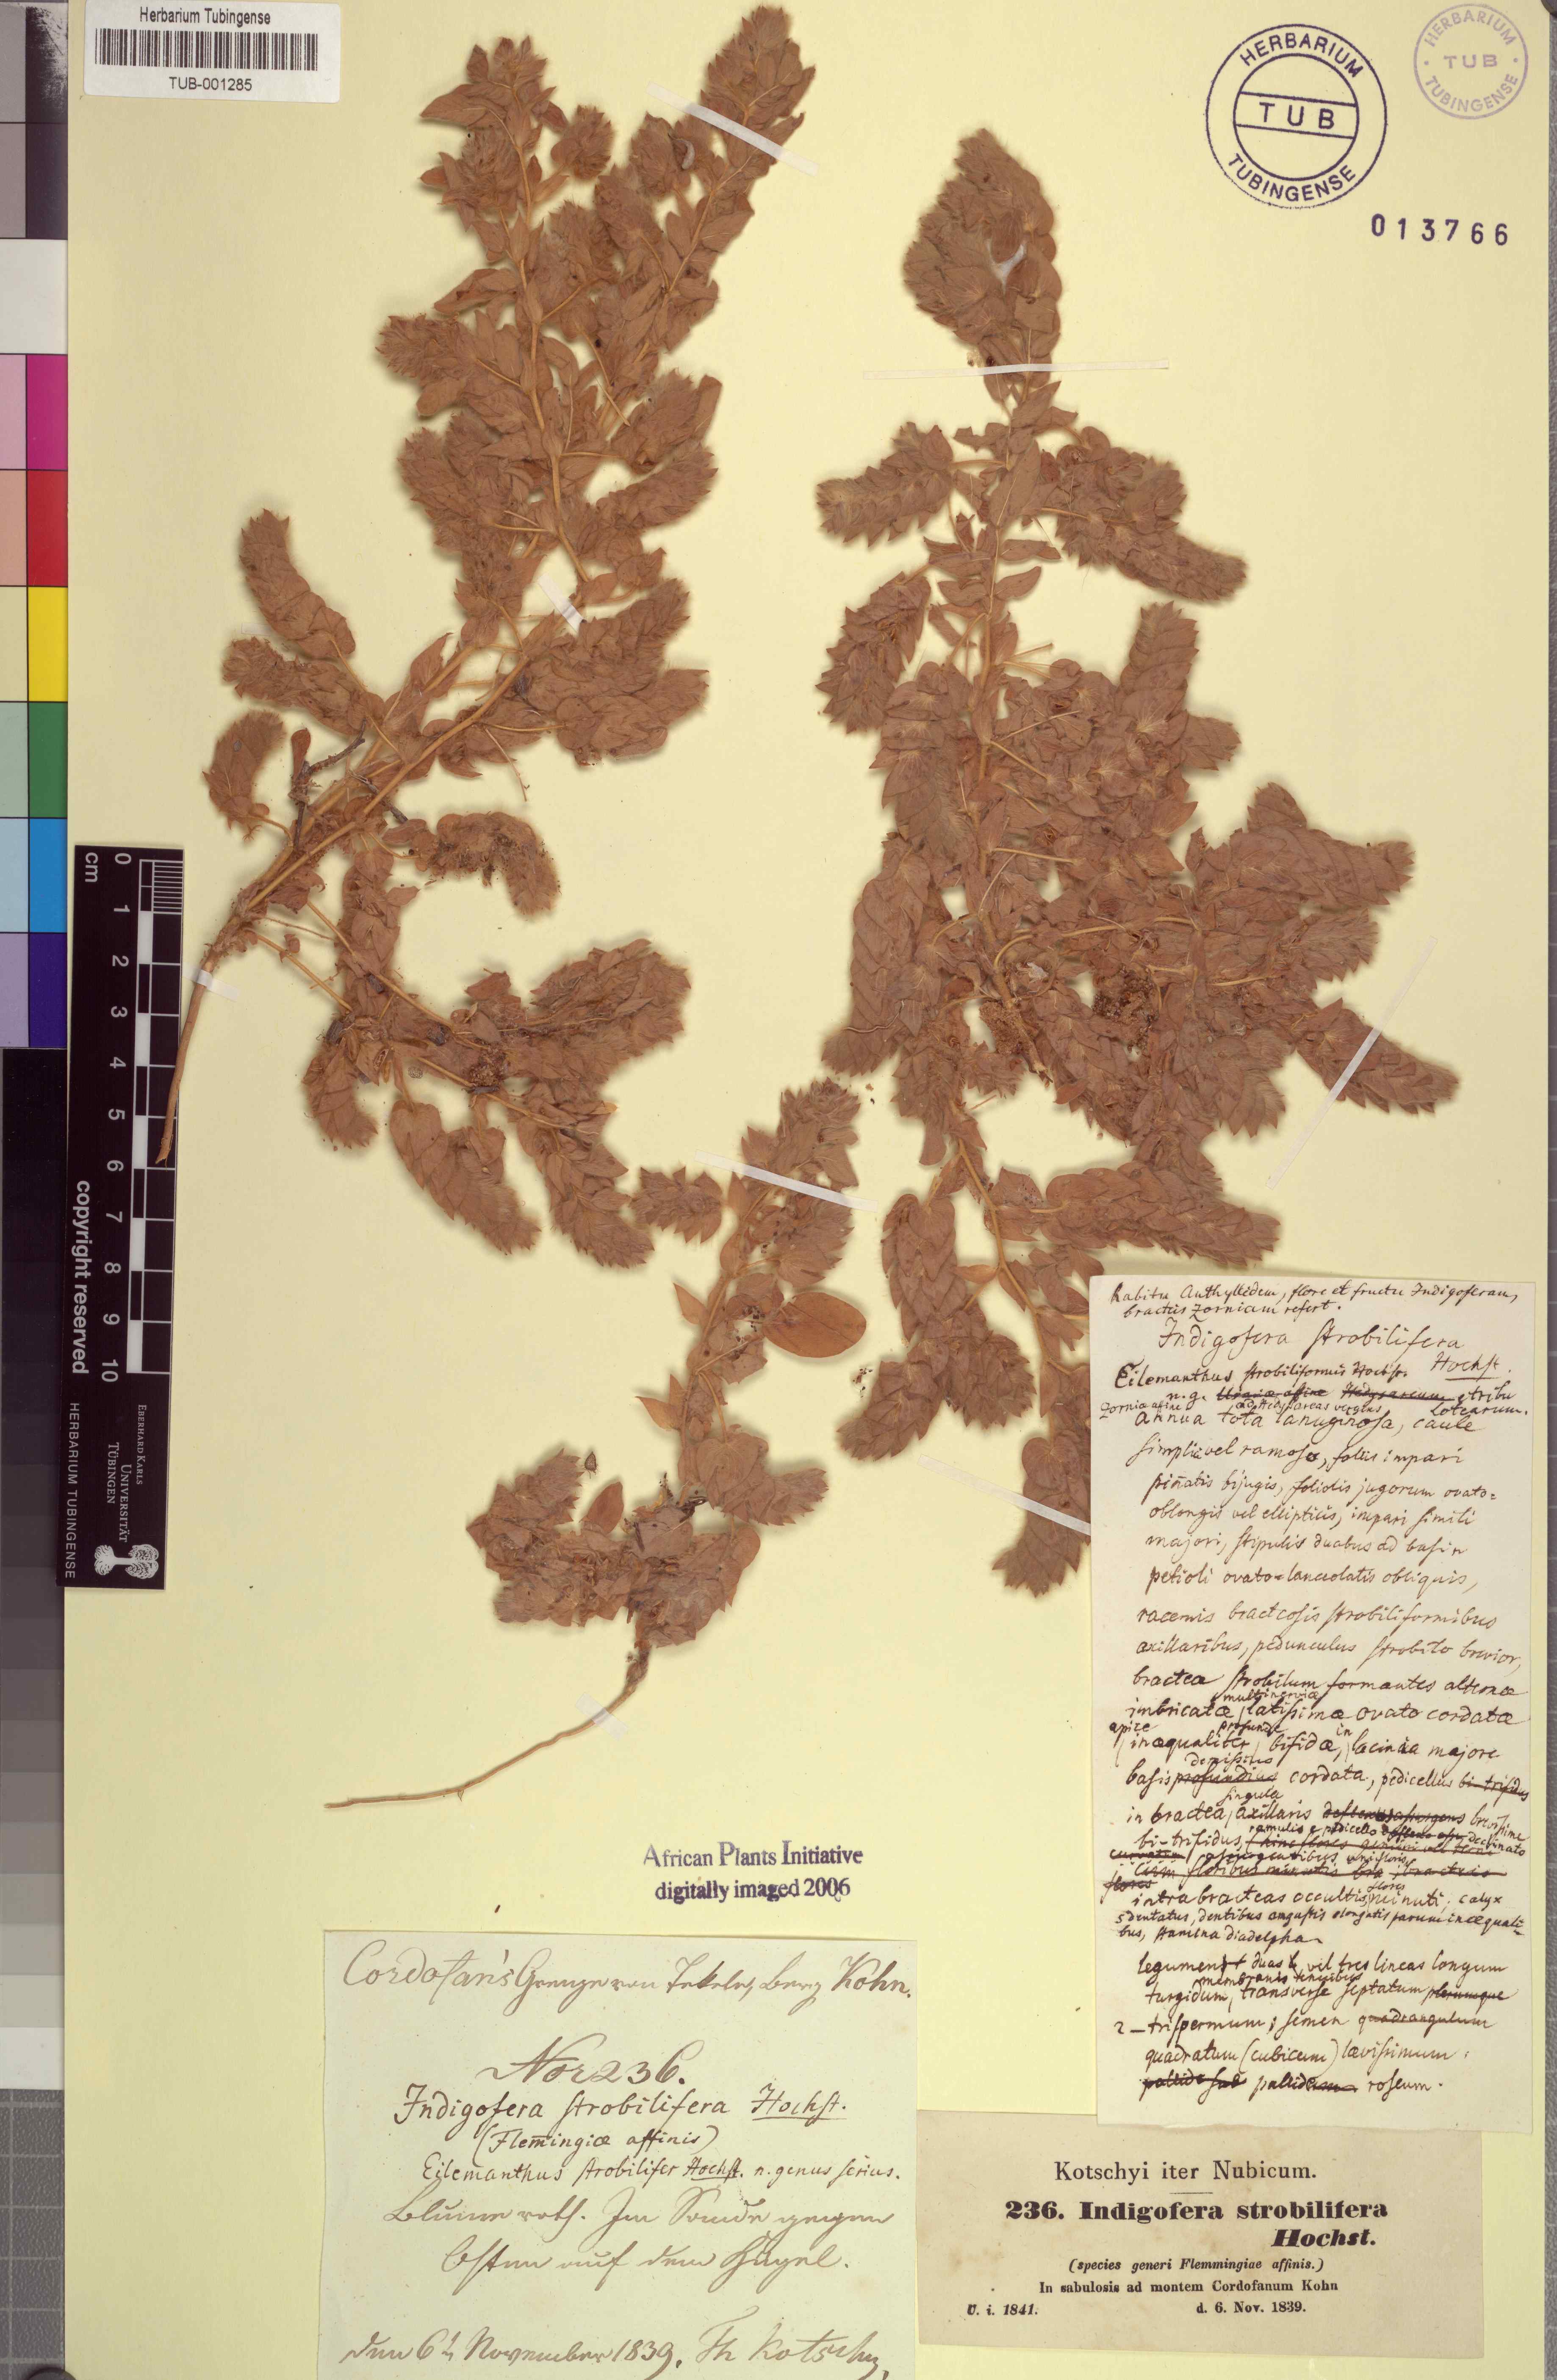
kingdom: Plantae
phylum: Tracheophyta
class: Magnoliopsida
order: Fabales
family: Fabaceae
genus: Indigofera
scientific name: Indigofera strobilifera
